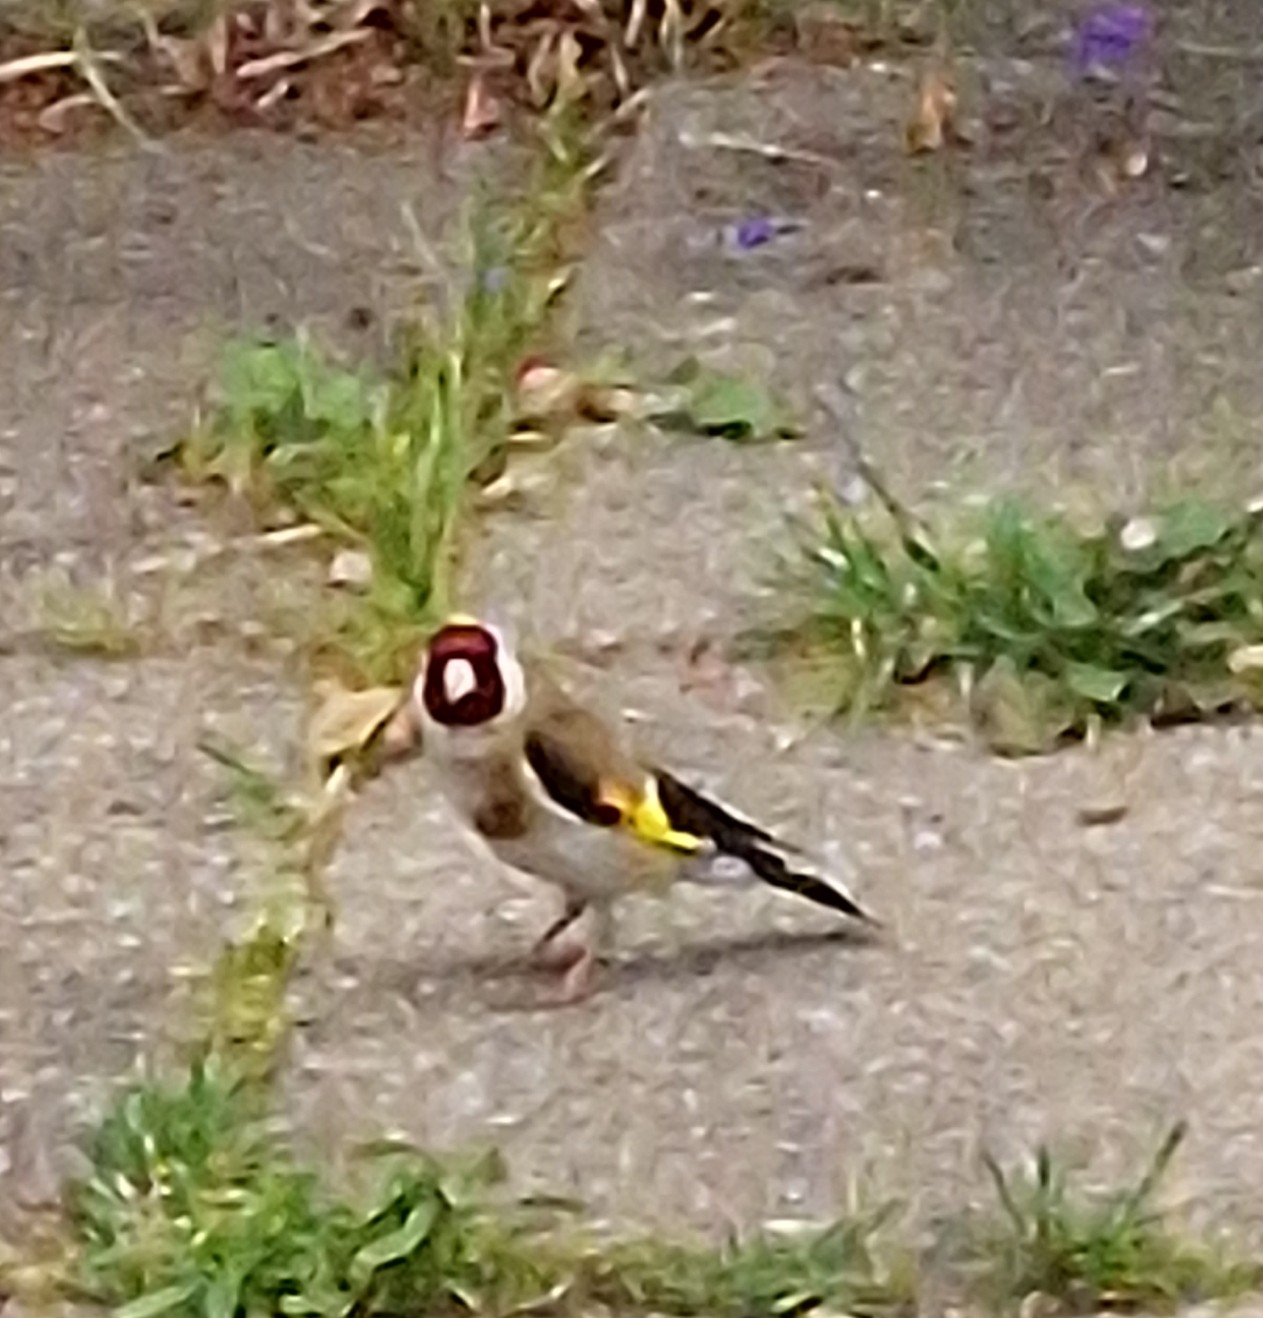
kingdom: Animalia
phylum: Chordata
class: Aves
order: Passeriformes
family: Fringillidae
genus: Carduelis
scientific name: Carduelis carduelis
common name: Stillits
